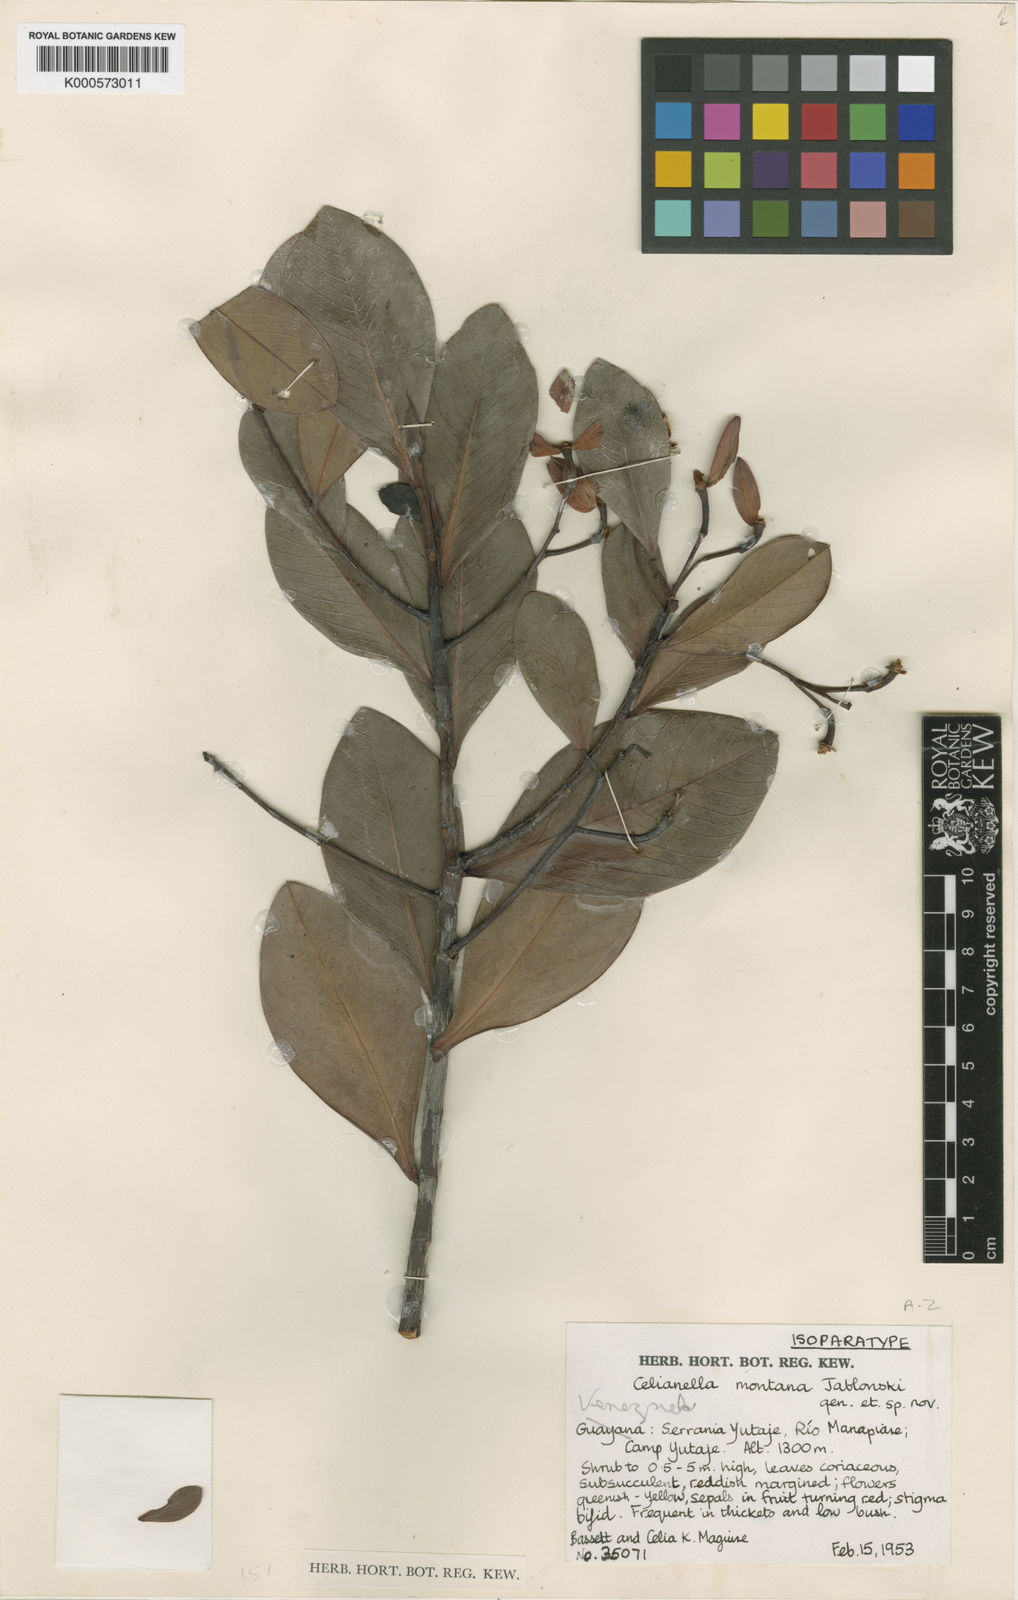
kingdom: Plantae
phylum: Tracheophyta
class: Magnoliopsida
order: Malpighiales
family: Phyllanthaceae
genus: Celianella
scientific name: Celianella montana
